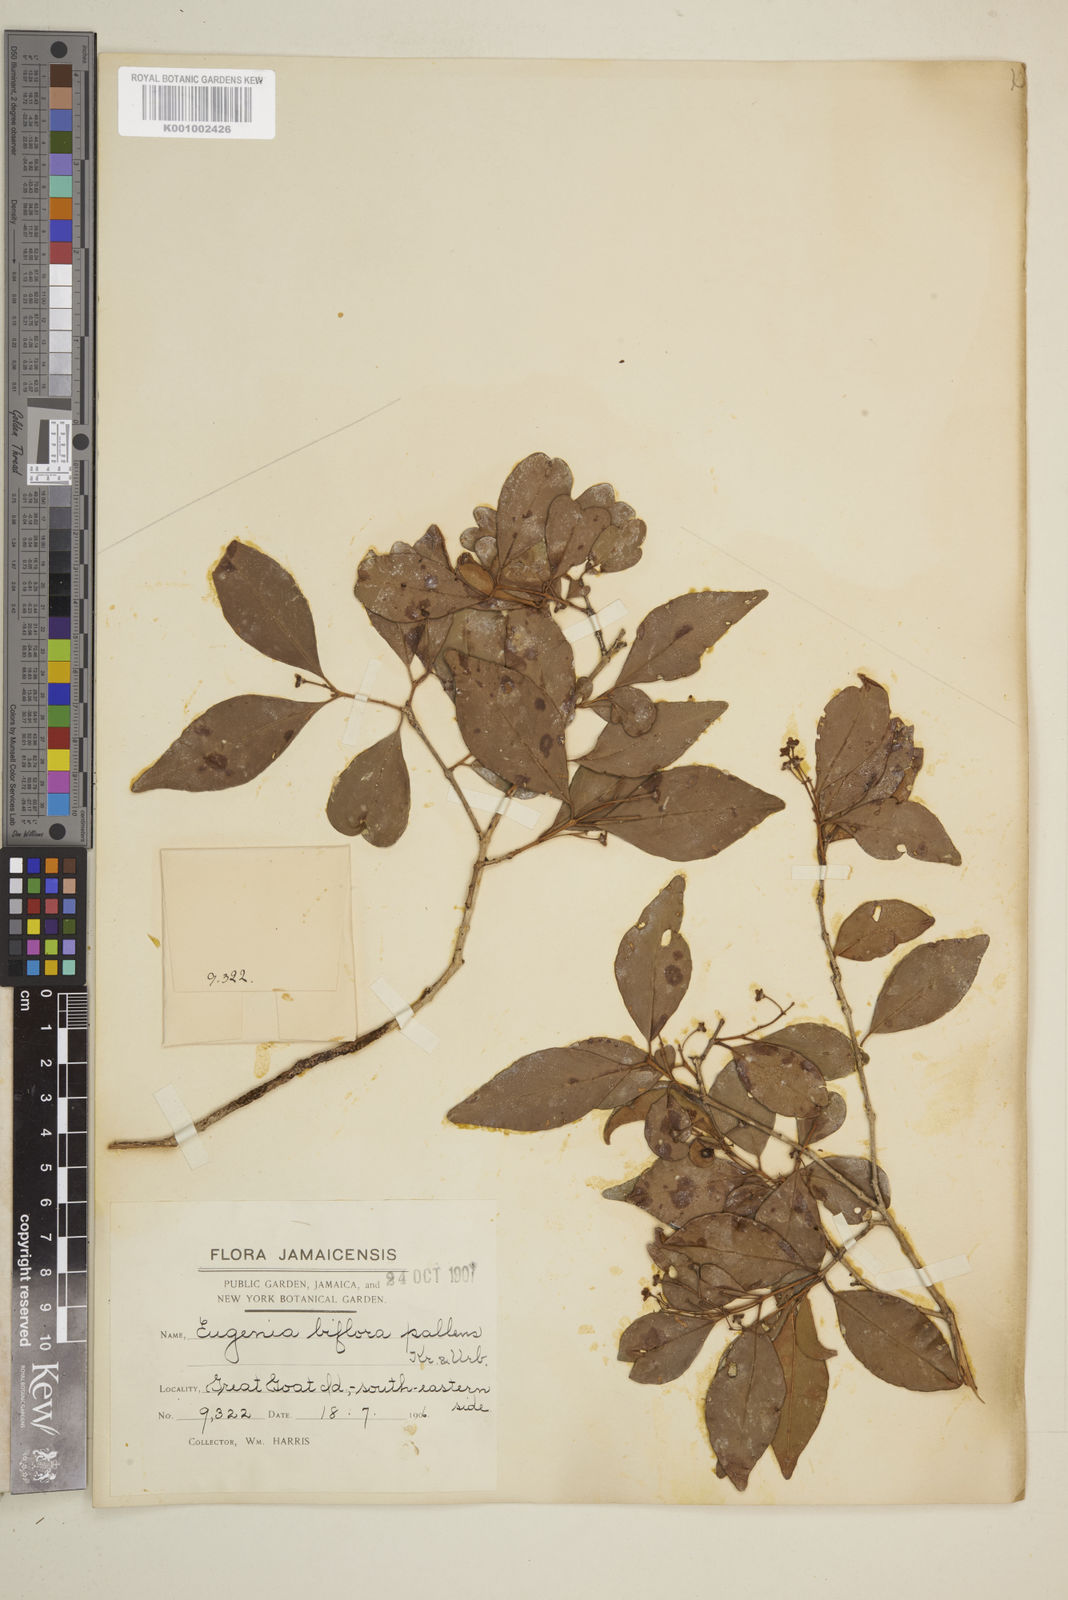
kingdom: Plantae
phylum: Tracheophyta
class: Magnoliopsida
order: Myrtales
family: Myrtaceae
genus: Eugenia
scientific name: Eugenia biflora
